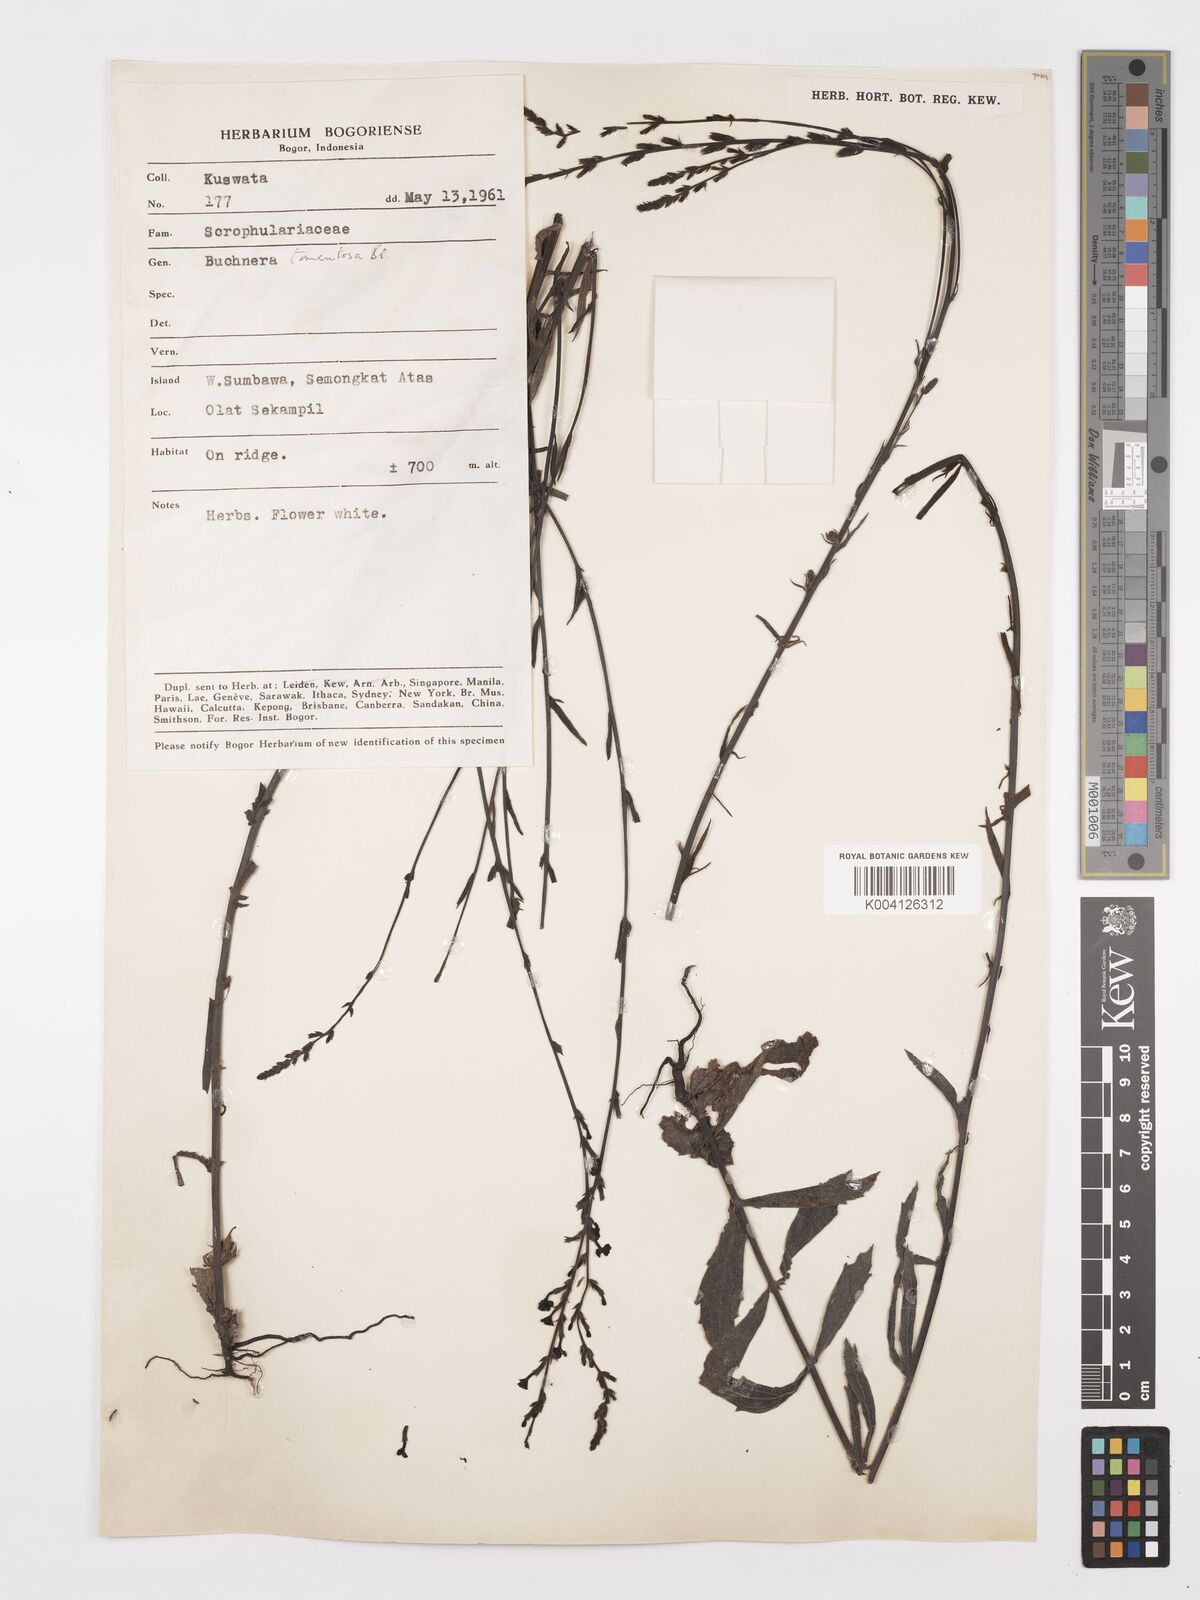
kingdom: Plantae
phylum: Tracheophyta
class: Magnoliopsida
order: Lamiales
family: Orobanchaceae
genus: Buchnera
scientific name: Buchnera tomentosa
